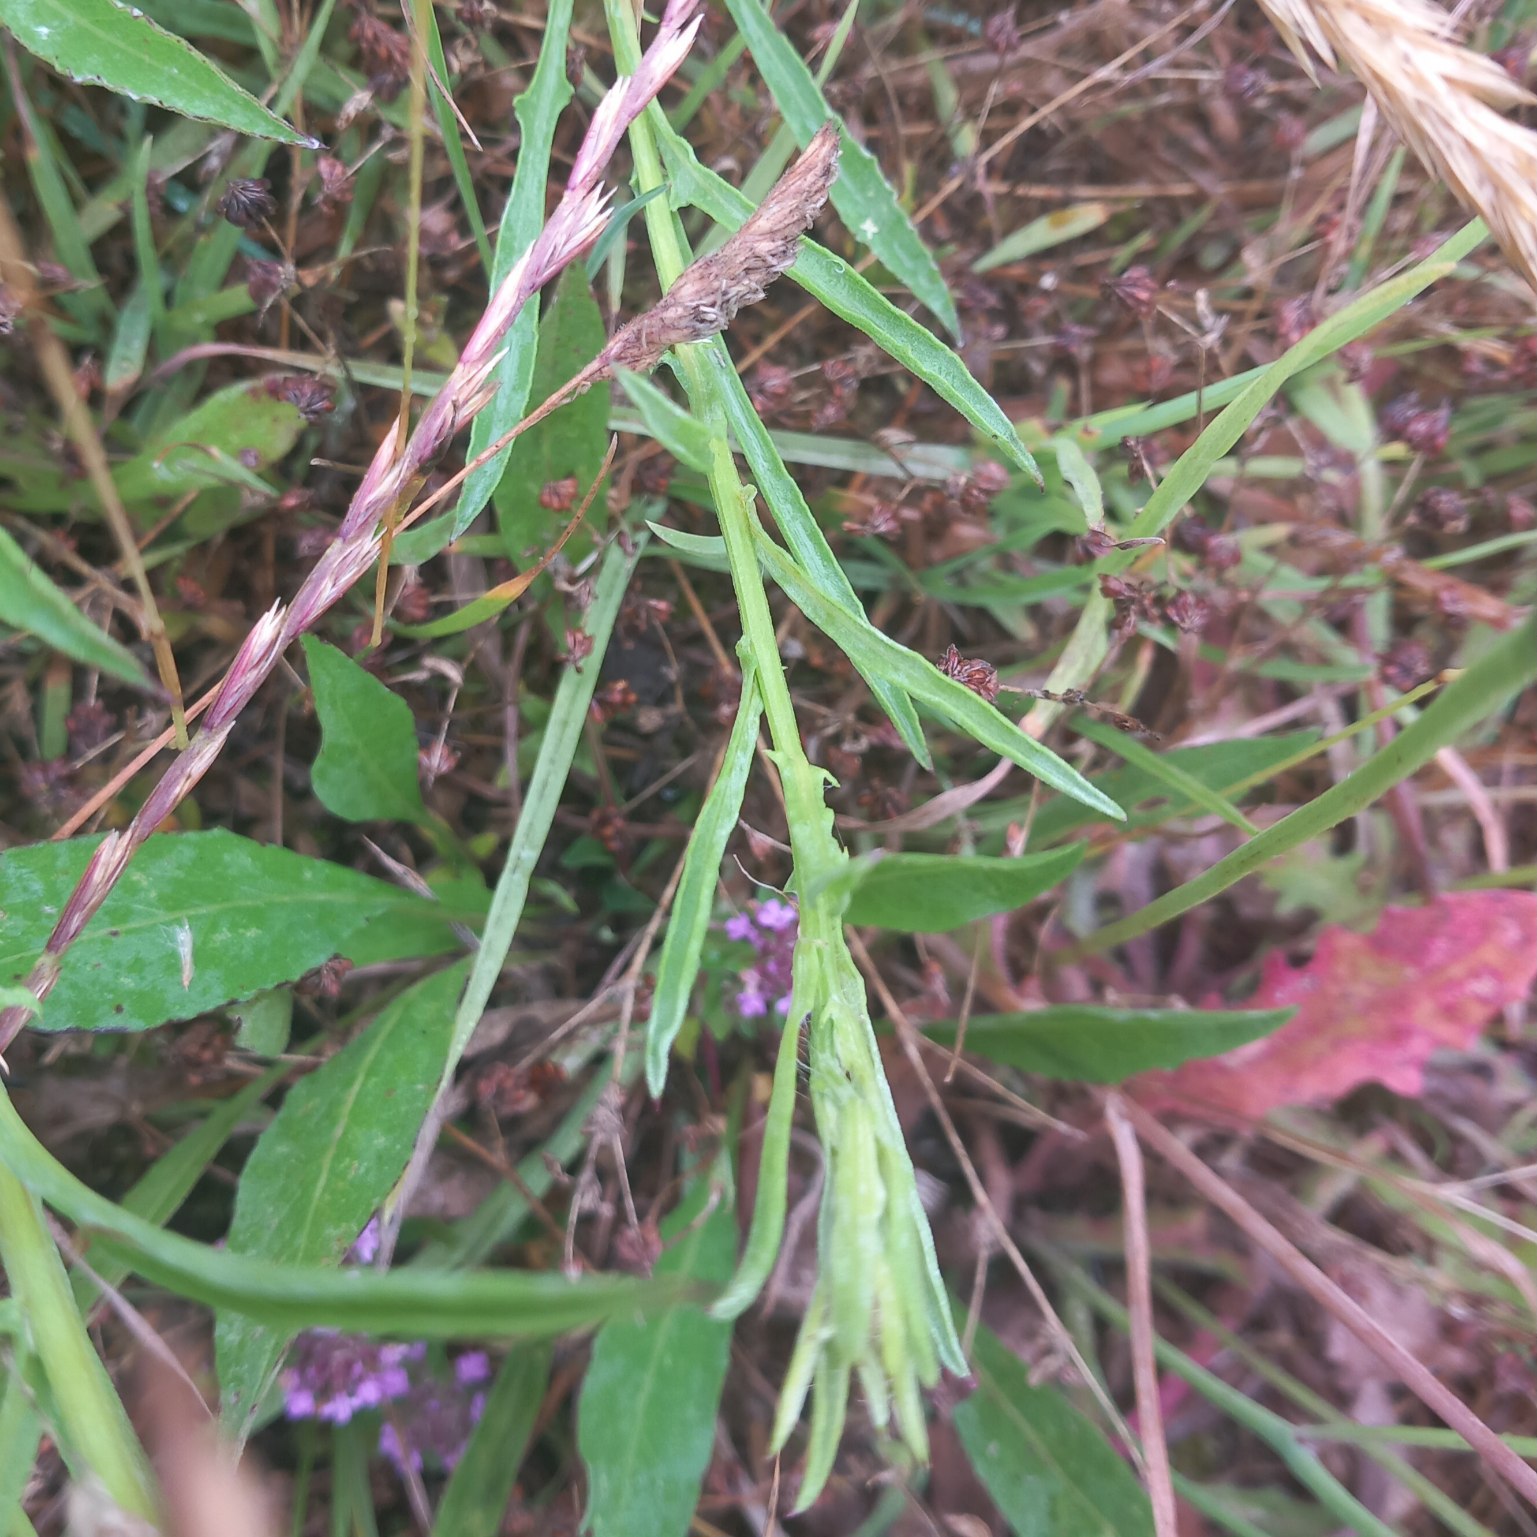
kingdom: Plantae
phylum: Tracheophyta
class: Magnoliopsida
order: Asterales
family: Asteraceae
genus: Centaurea
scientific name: Centaurea jacea
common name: Almindelig knopurt
